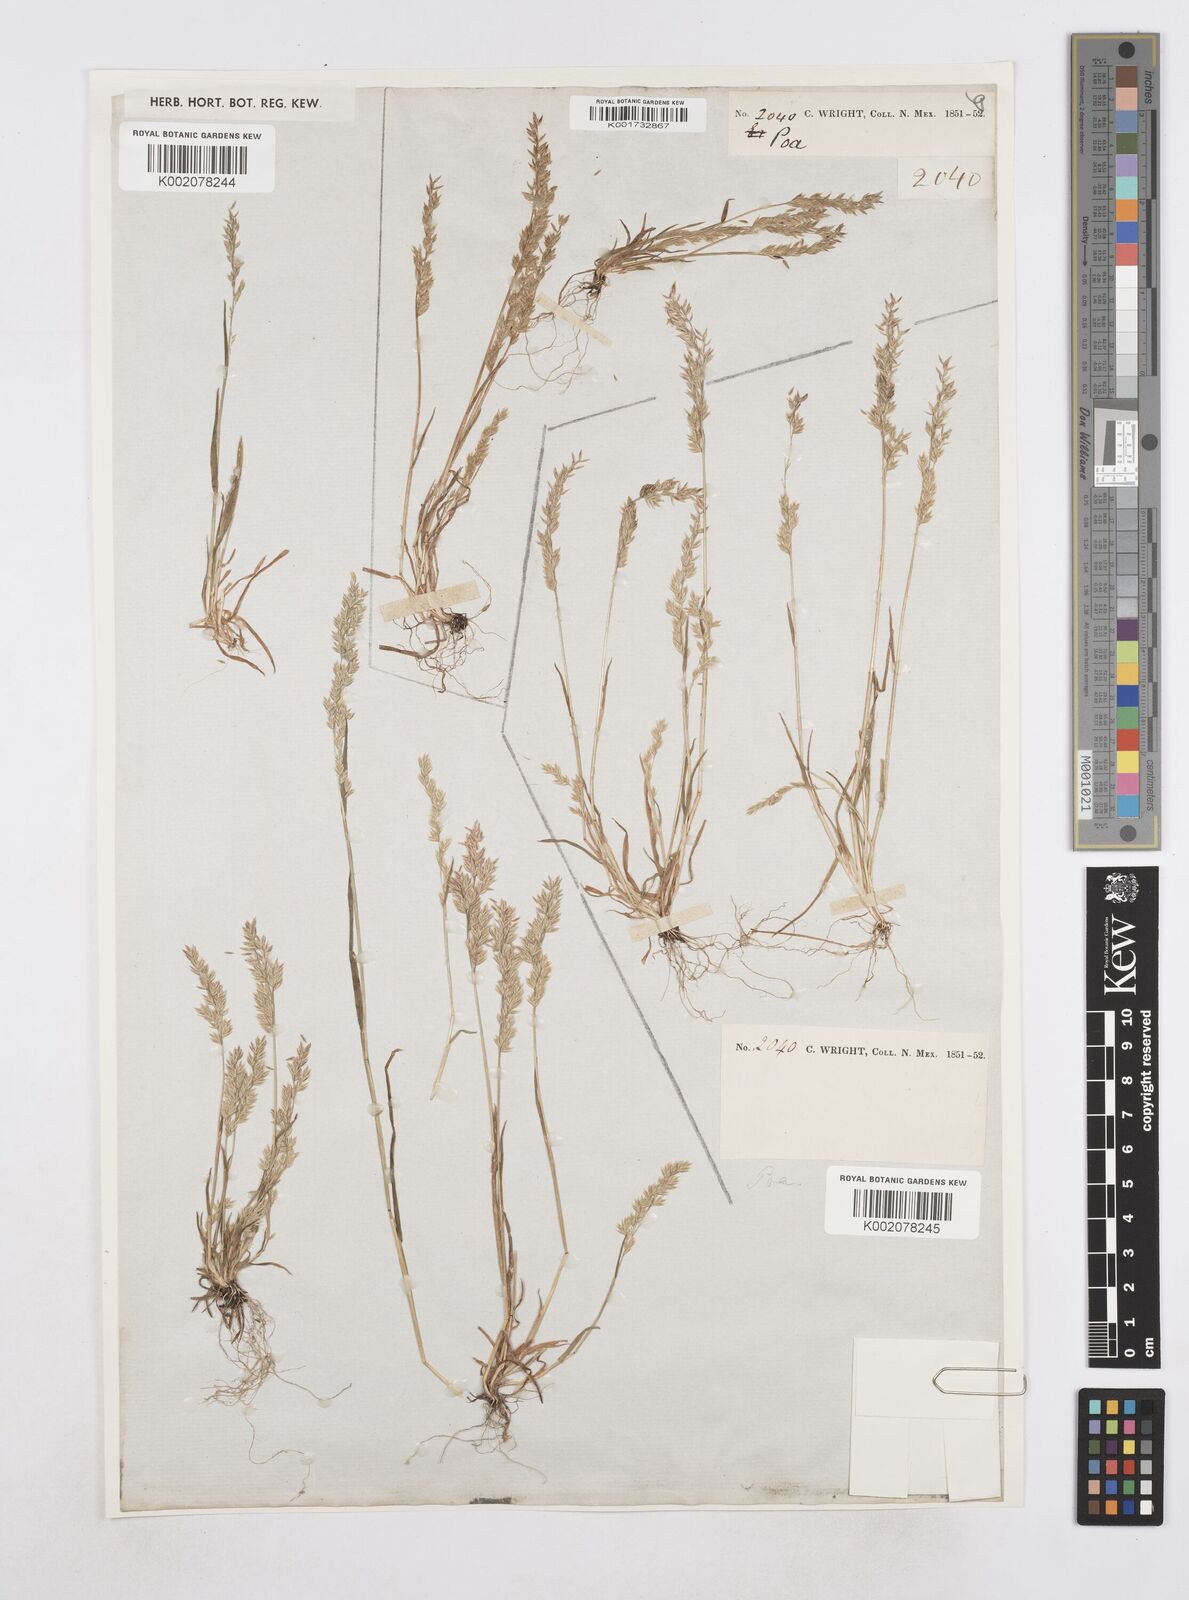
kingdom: Plantae
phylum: Tracheophyta
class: Liliopsida
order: Poales
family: Poaceae
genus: Poa
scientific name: Poa
